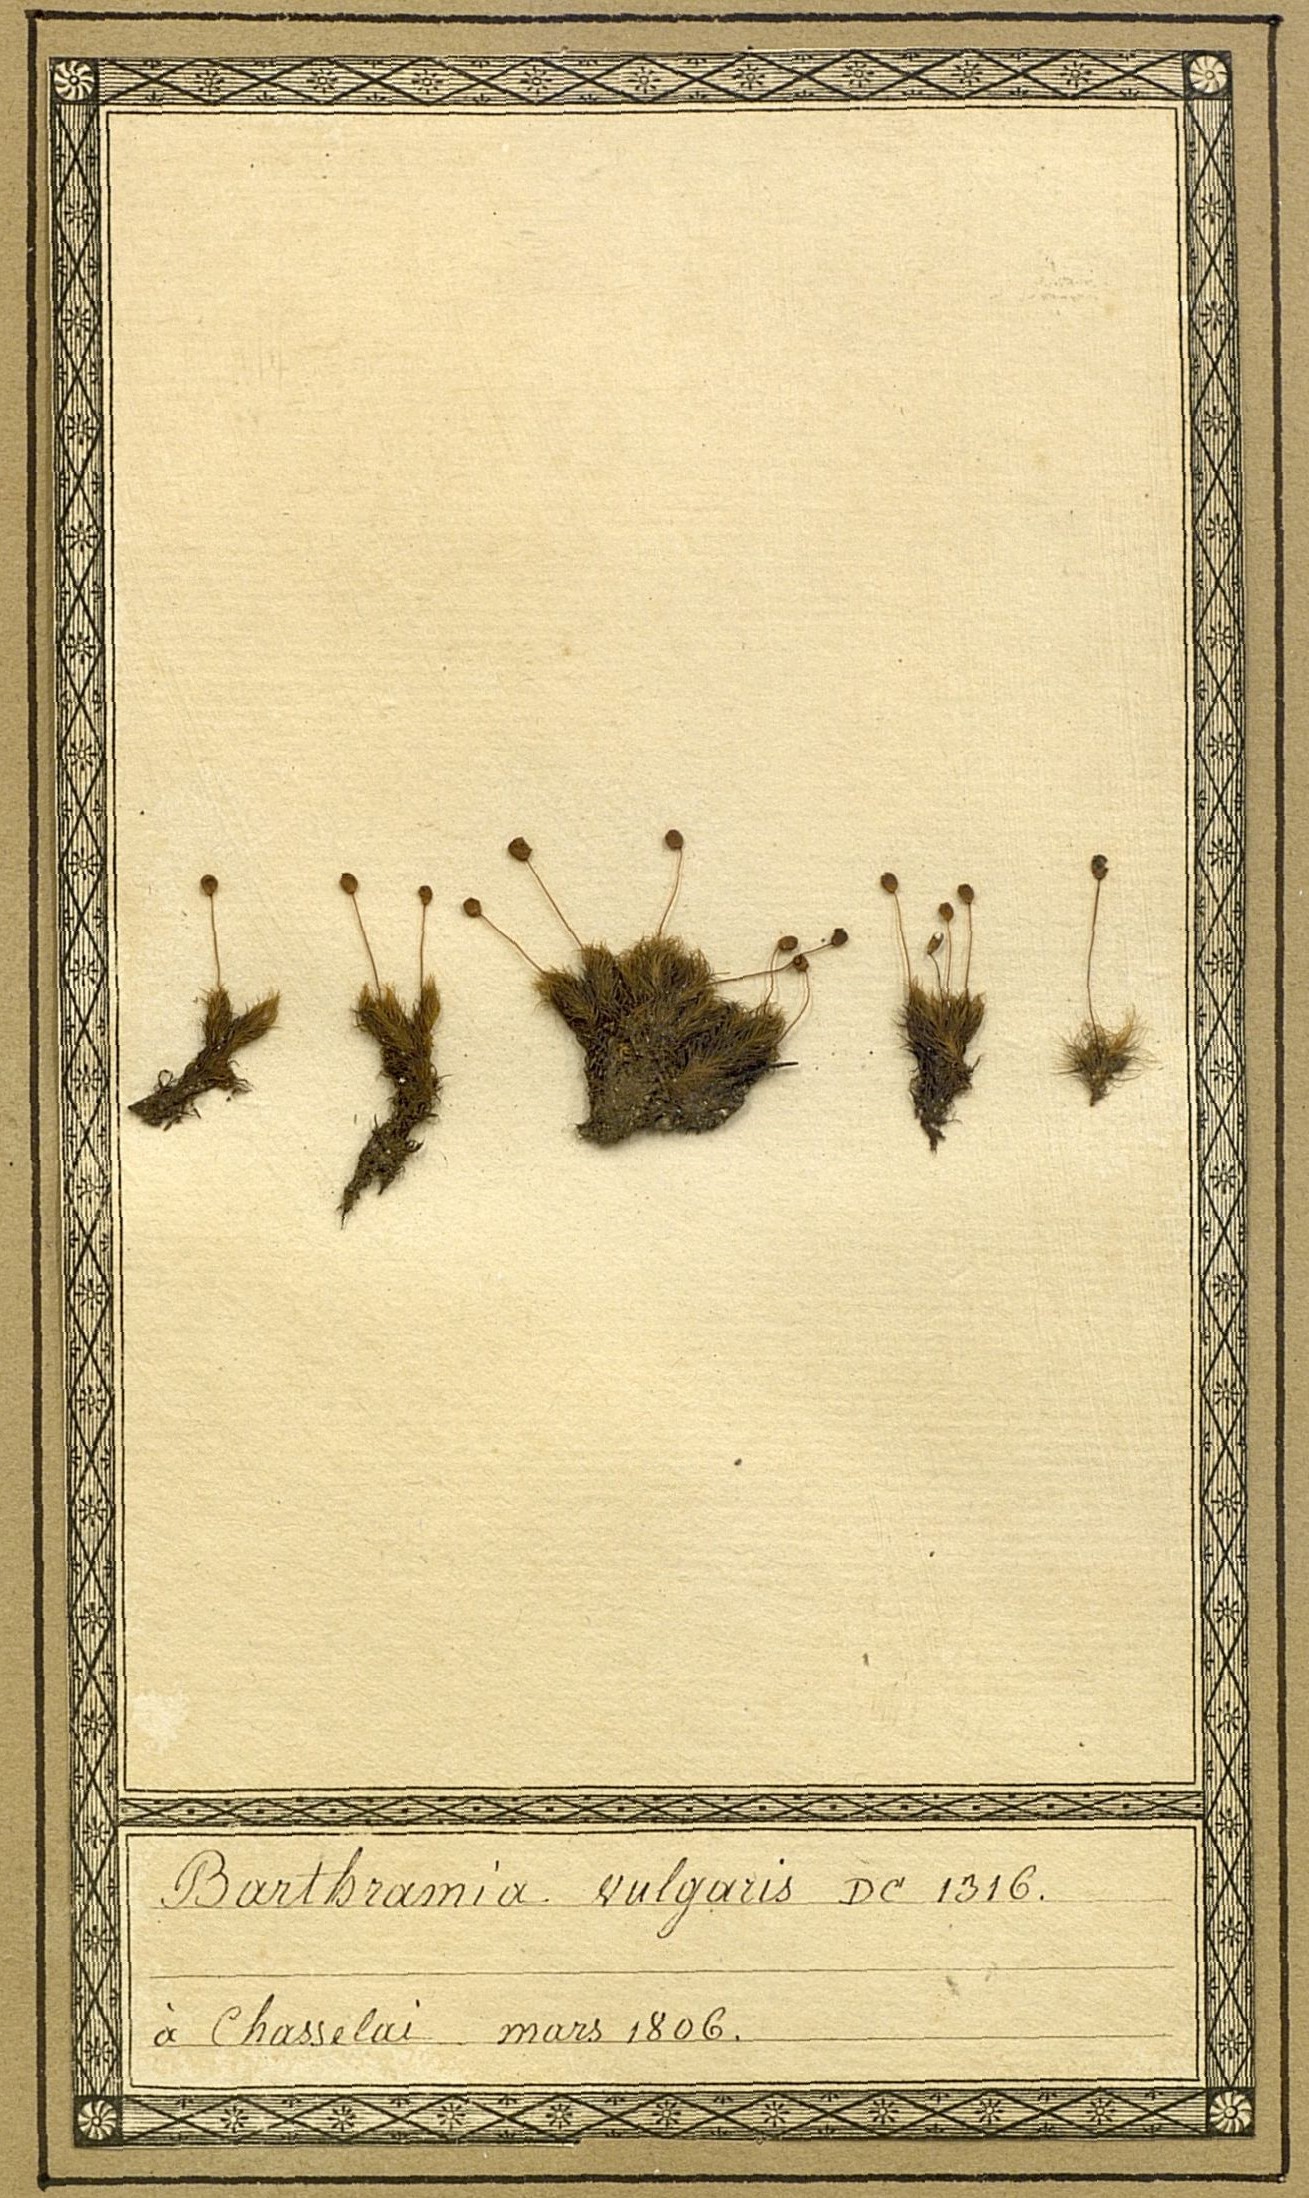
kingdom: Plantae
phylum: Bryophyta
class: Bryopsida
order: Bartramiales
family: Bartramiaceae
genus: Bartramia
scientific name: Bartramia pomiformis
